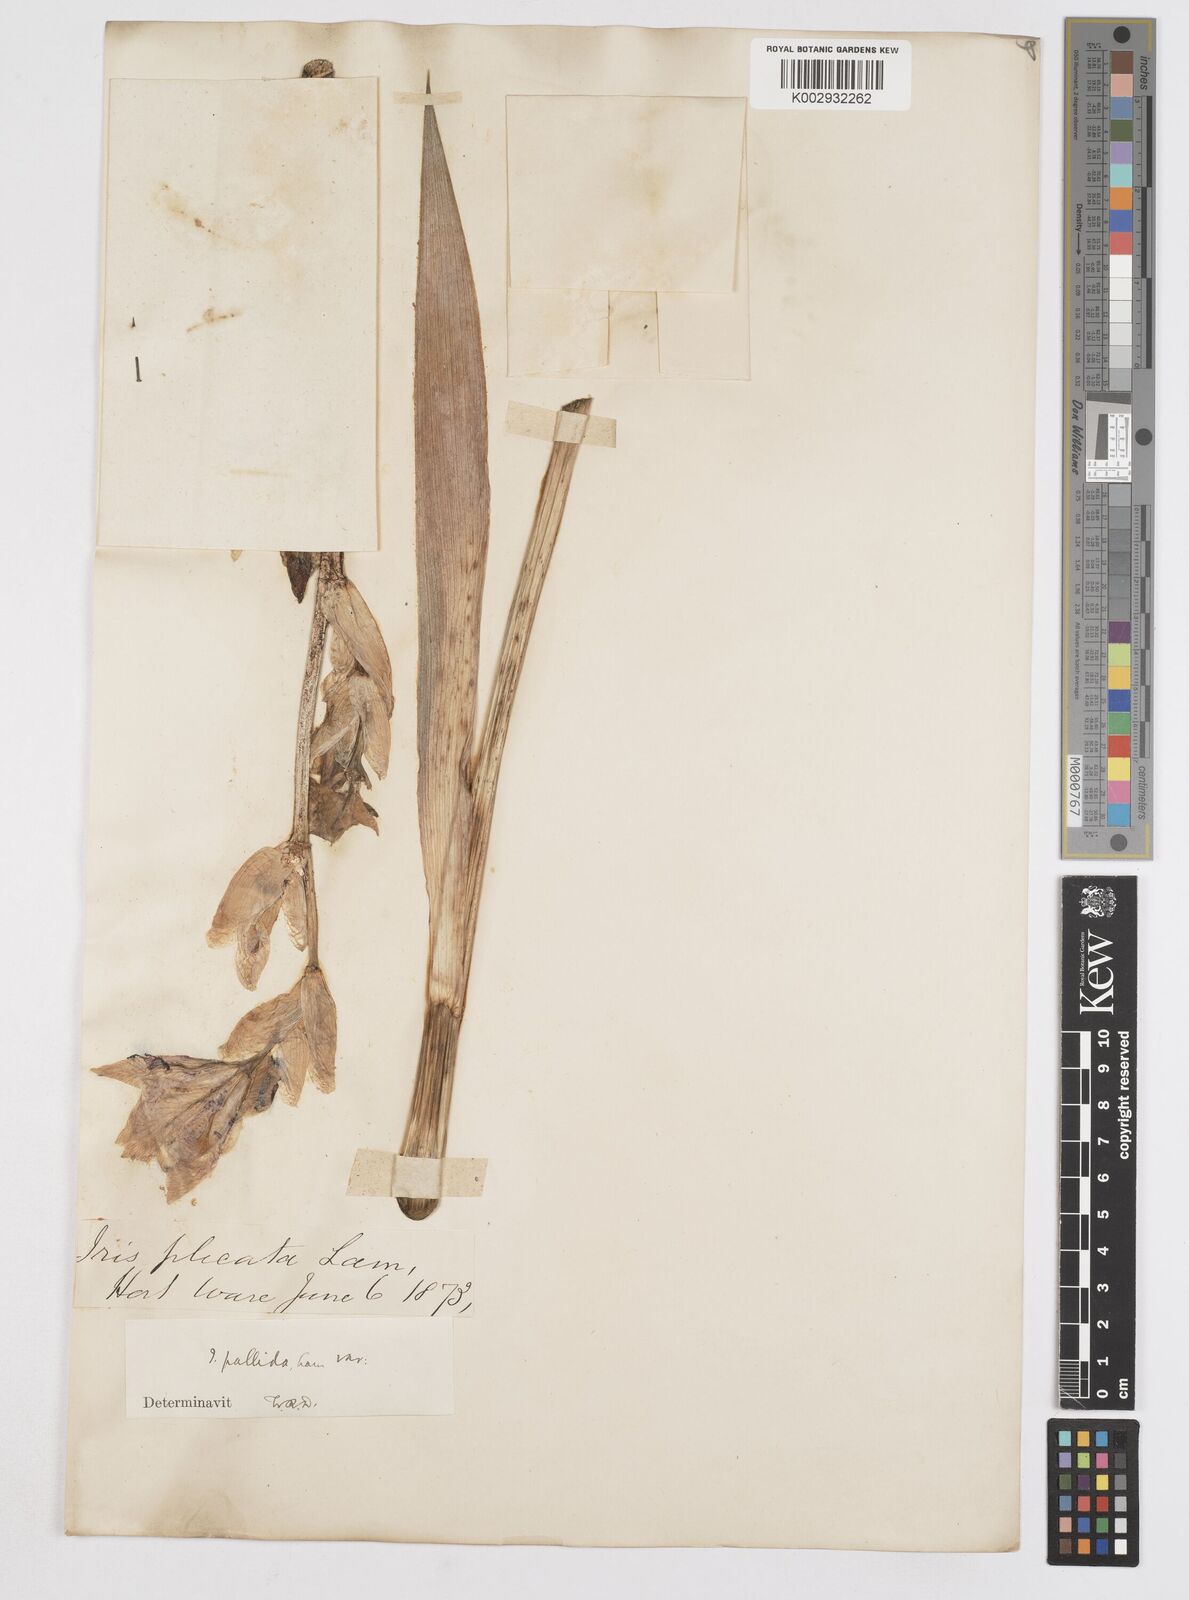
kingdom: Plantae
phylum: Tracheophyta
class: Liliopsida
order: Asparagales
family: Iridaceae
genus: Iris
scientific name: Iris pallida
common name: Sweet iris
